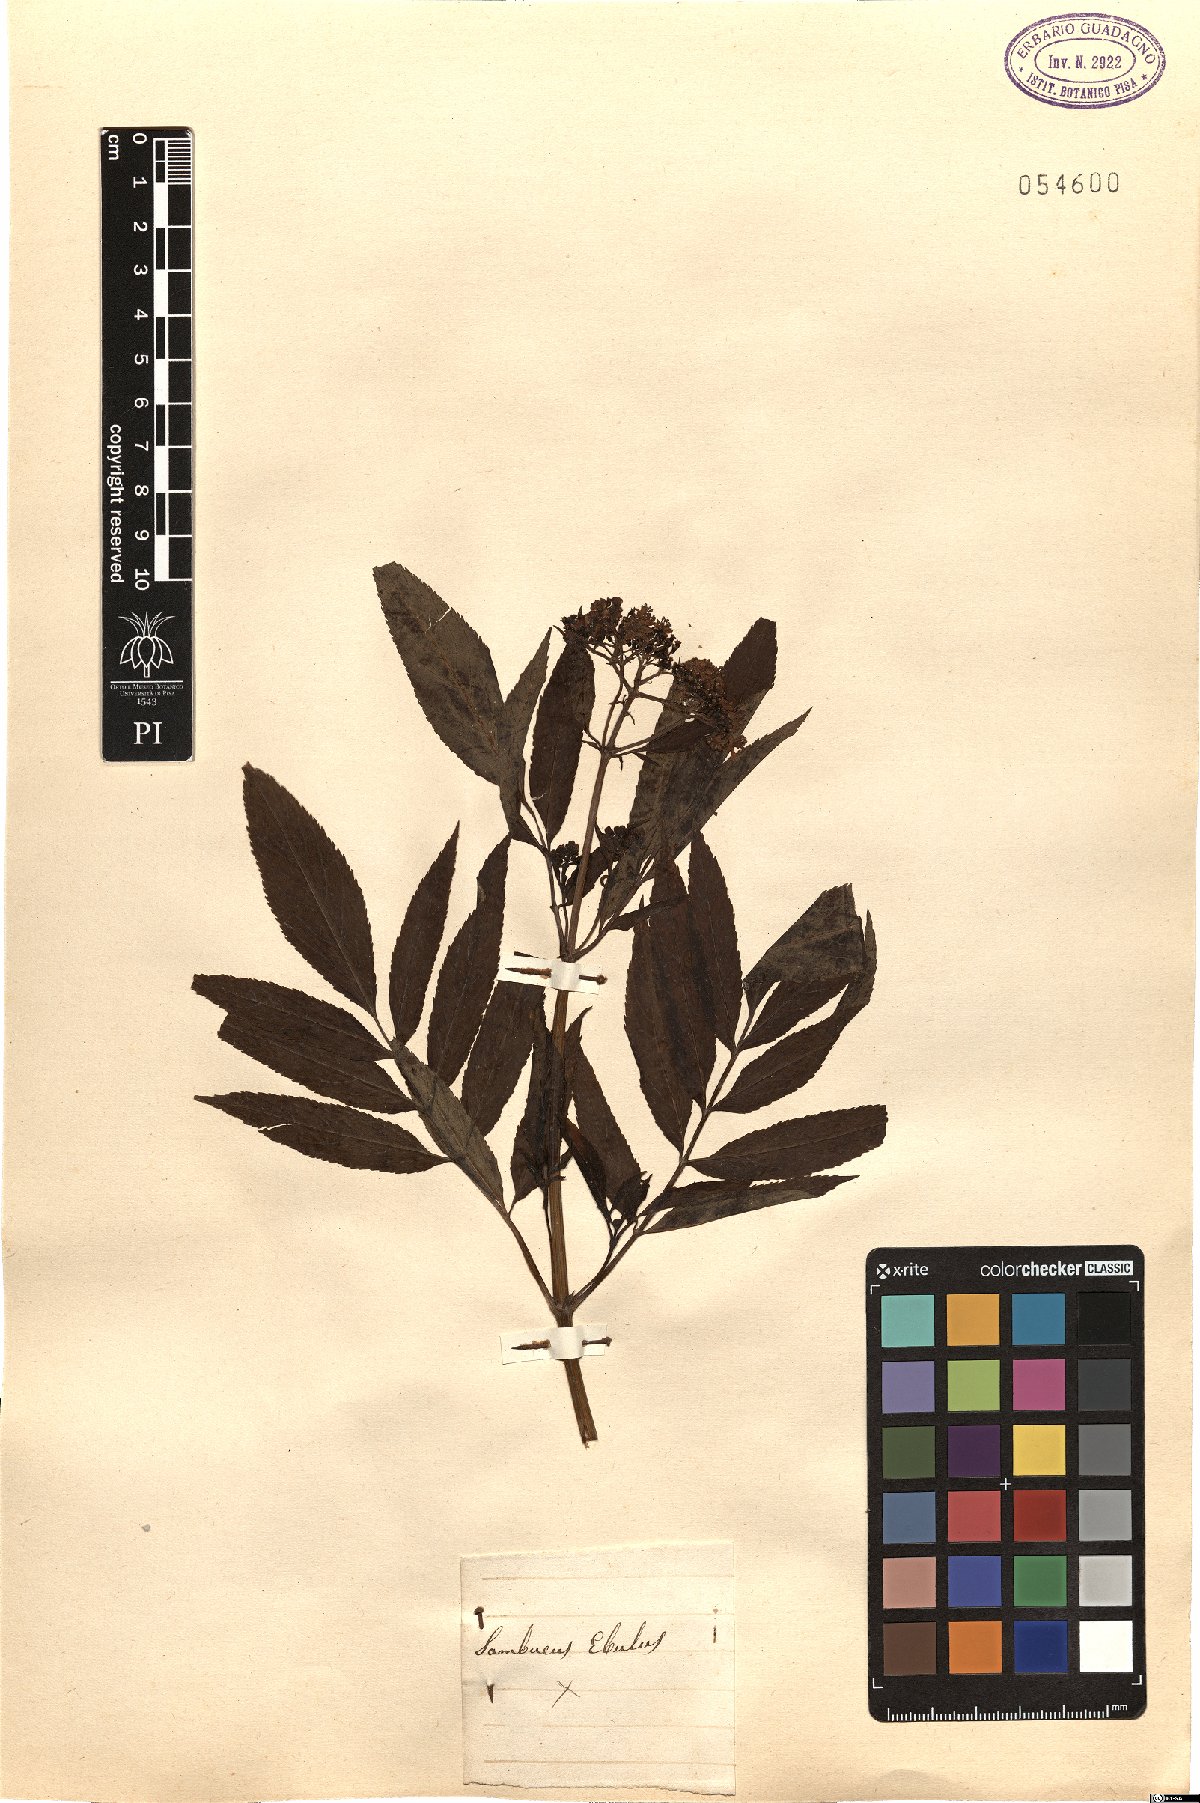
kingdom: Plantae
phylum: Tracheophyta
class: Magnoliopsida
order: Dipsacales
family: Viburnaceae
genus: Sambucus
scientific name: Sambucus ebulus
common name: Dwarf elder
